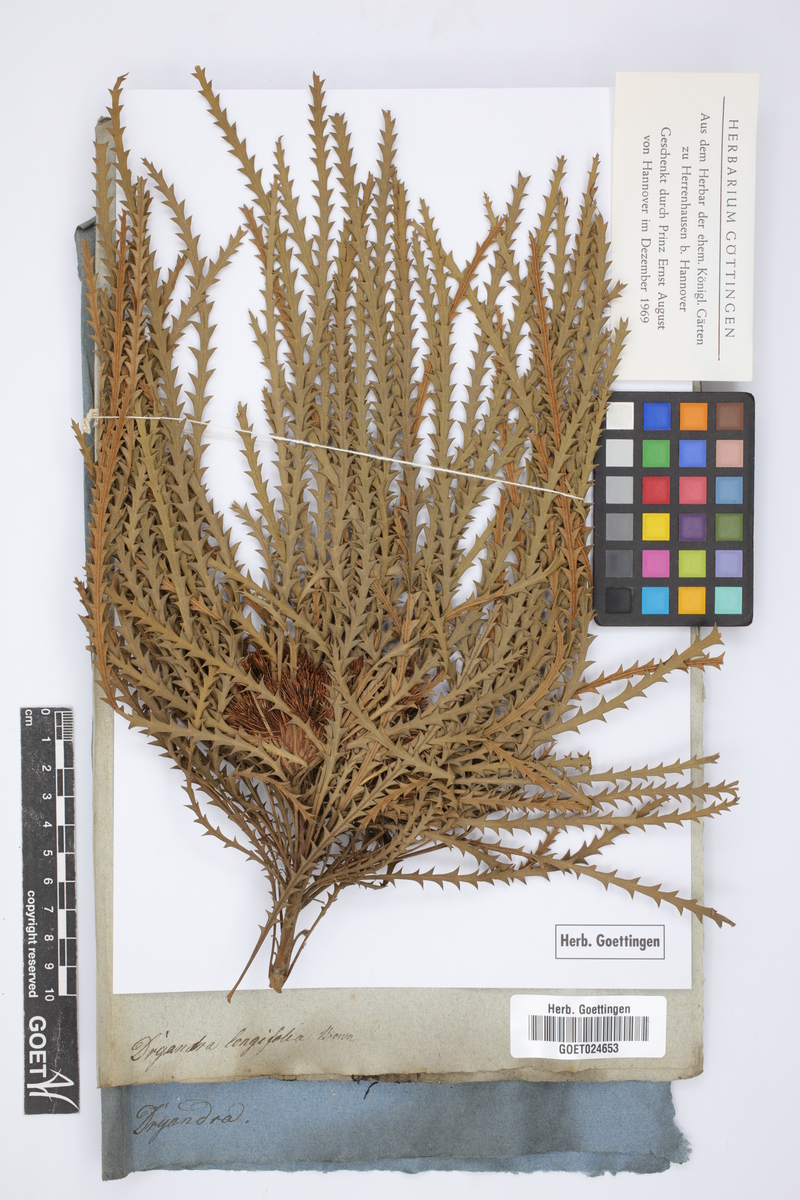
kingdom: Plantae
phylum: Tracheophyta
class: Magnoliopsida
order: Proteales
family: Proteaceae
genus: Banksia
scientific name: Banksia prolata
